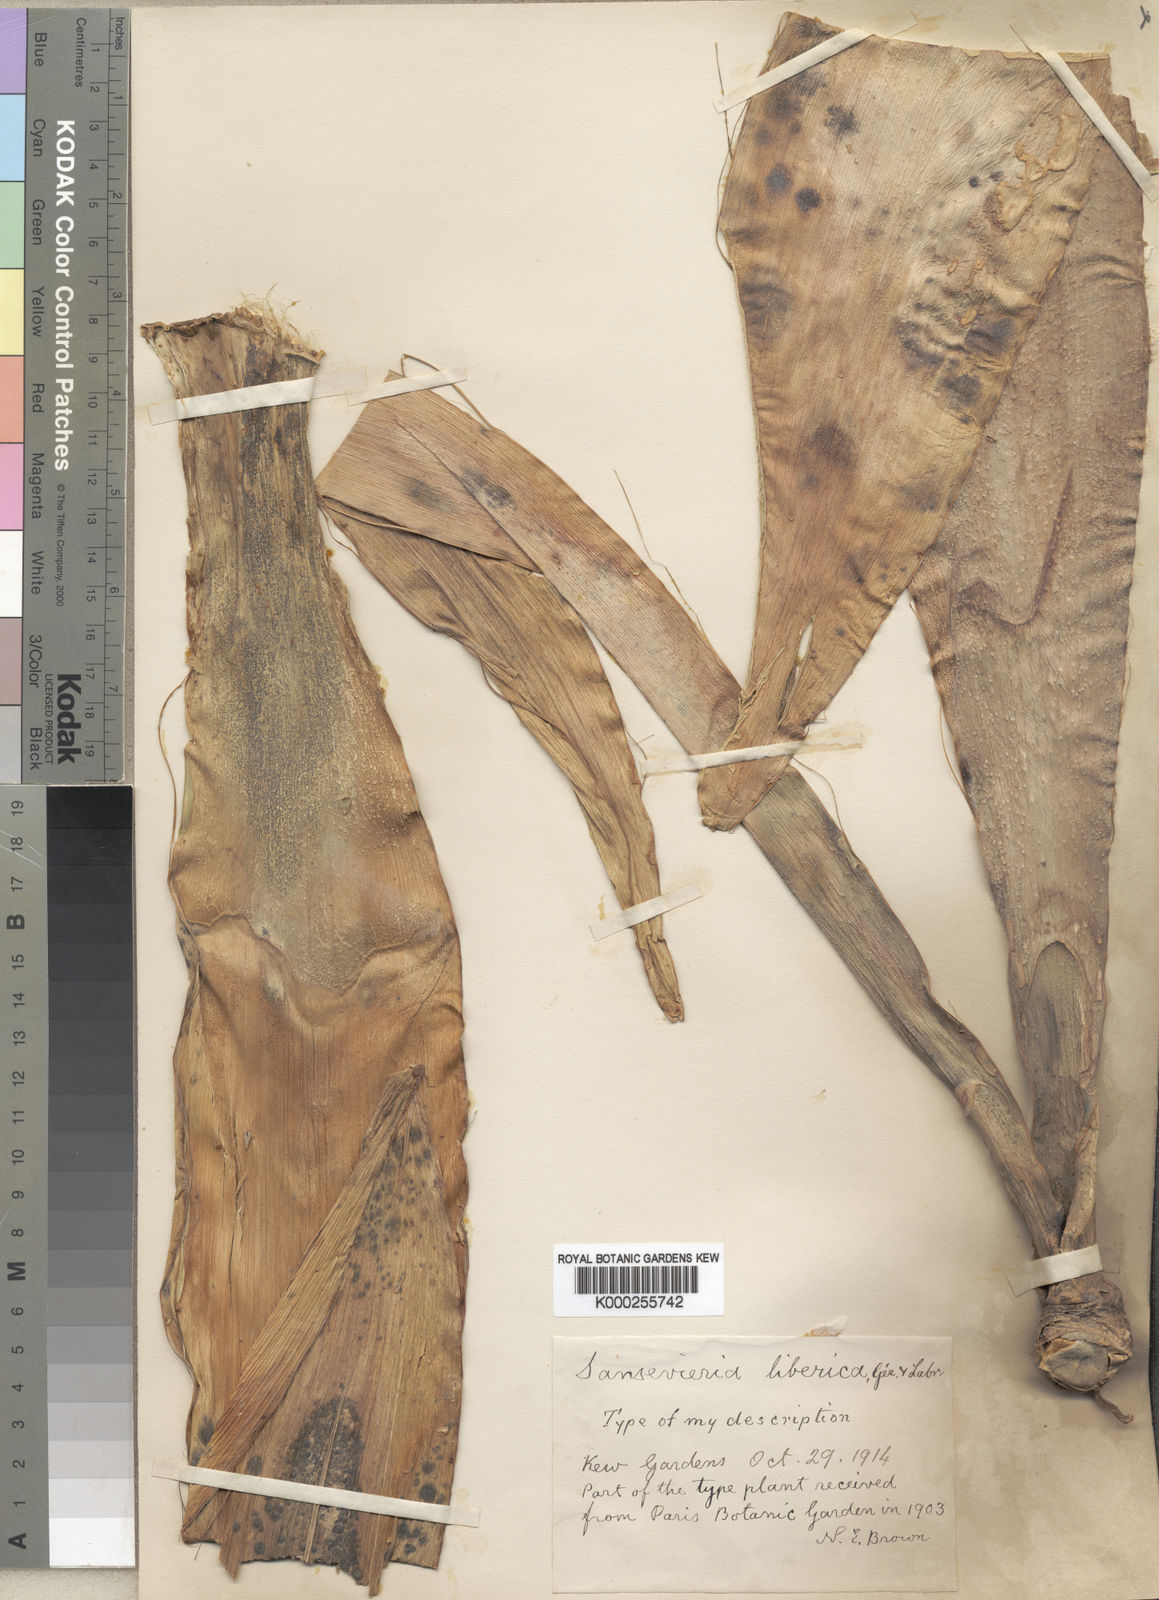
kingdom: Plantae
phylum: Tracheophyta
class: Liliopsida
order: Asparagales
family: Asparagaceae
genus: Dracaena
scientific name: Dracaena liberica
